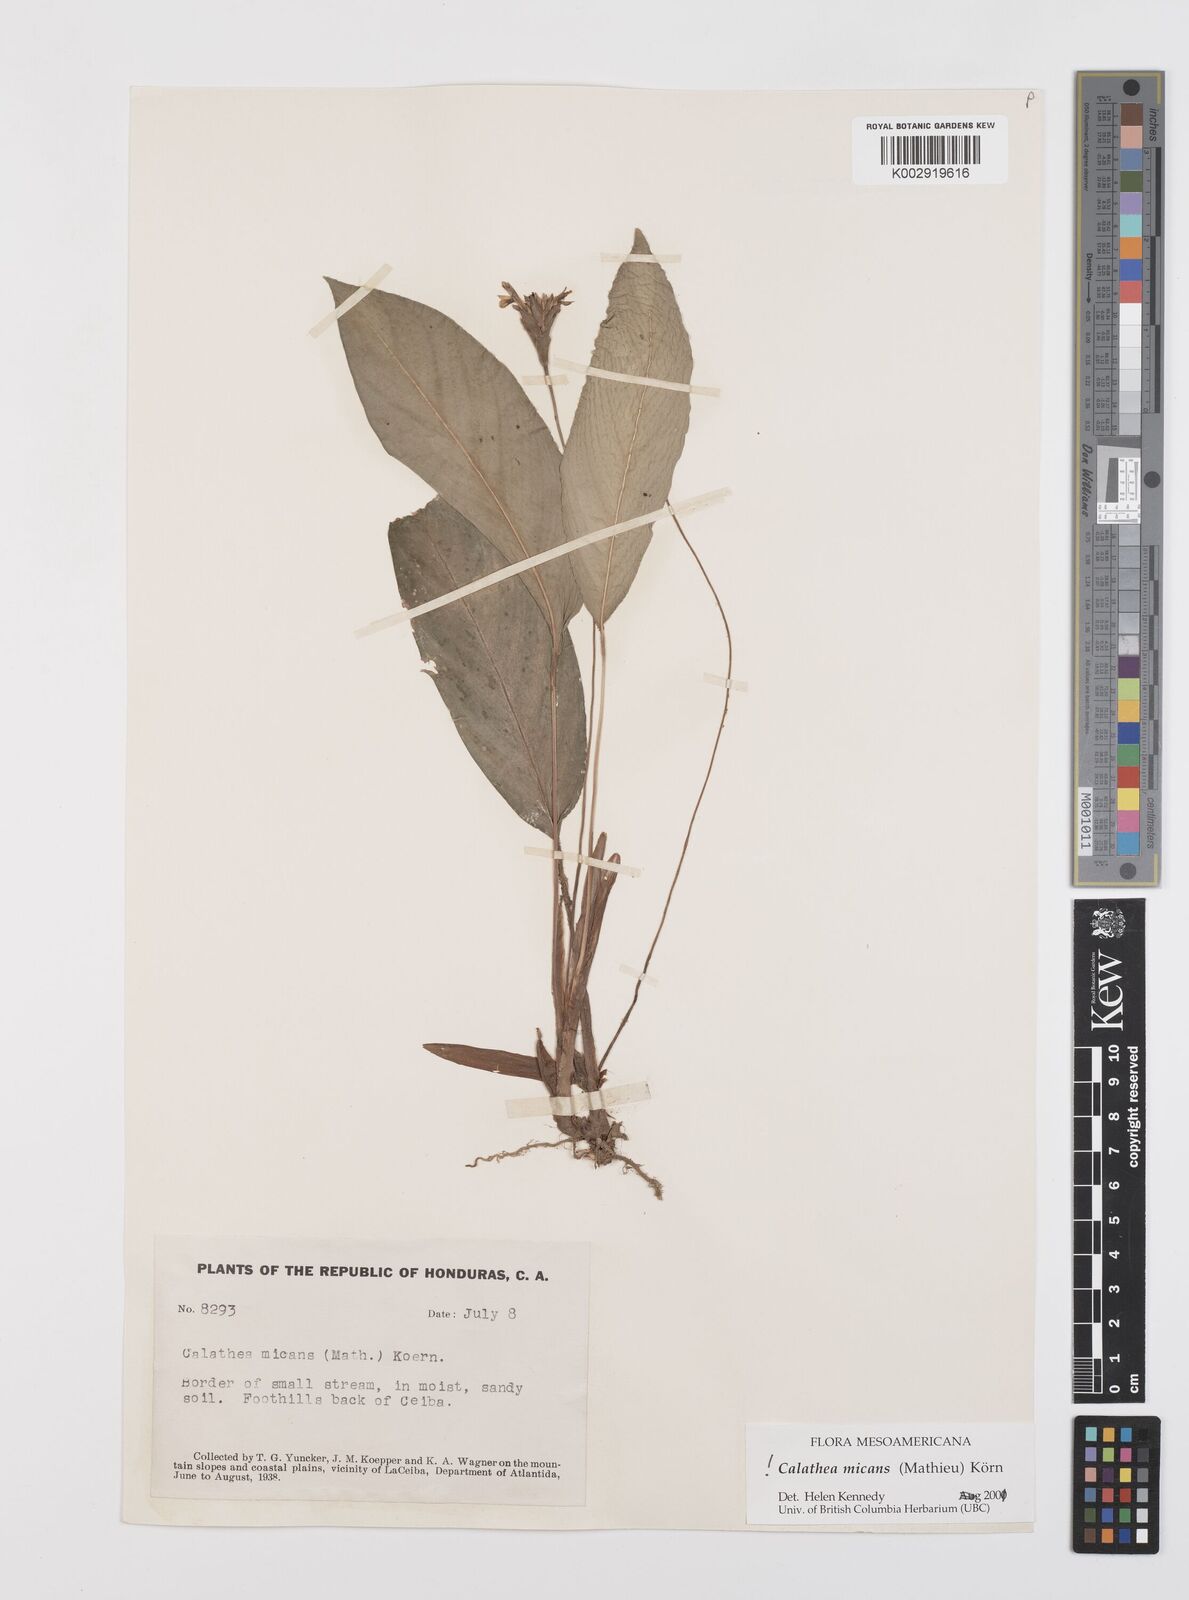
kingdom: Plantae
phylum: Tracheophyta
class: Liliopsida
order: Zingiberales
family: Marantaceae
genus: Goeppertia
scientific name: Goeppertia micans
